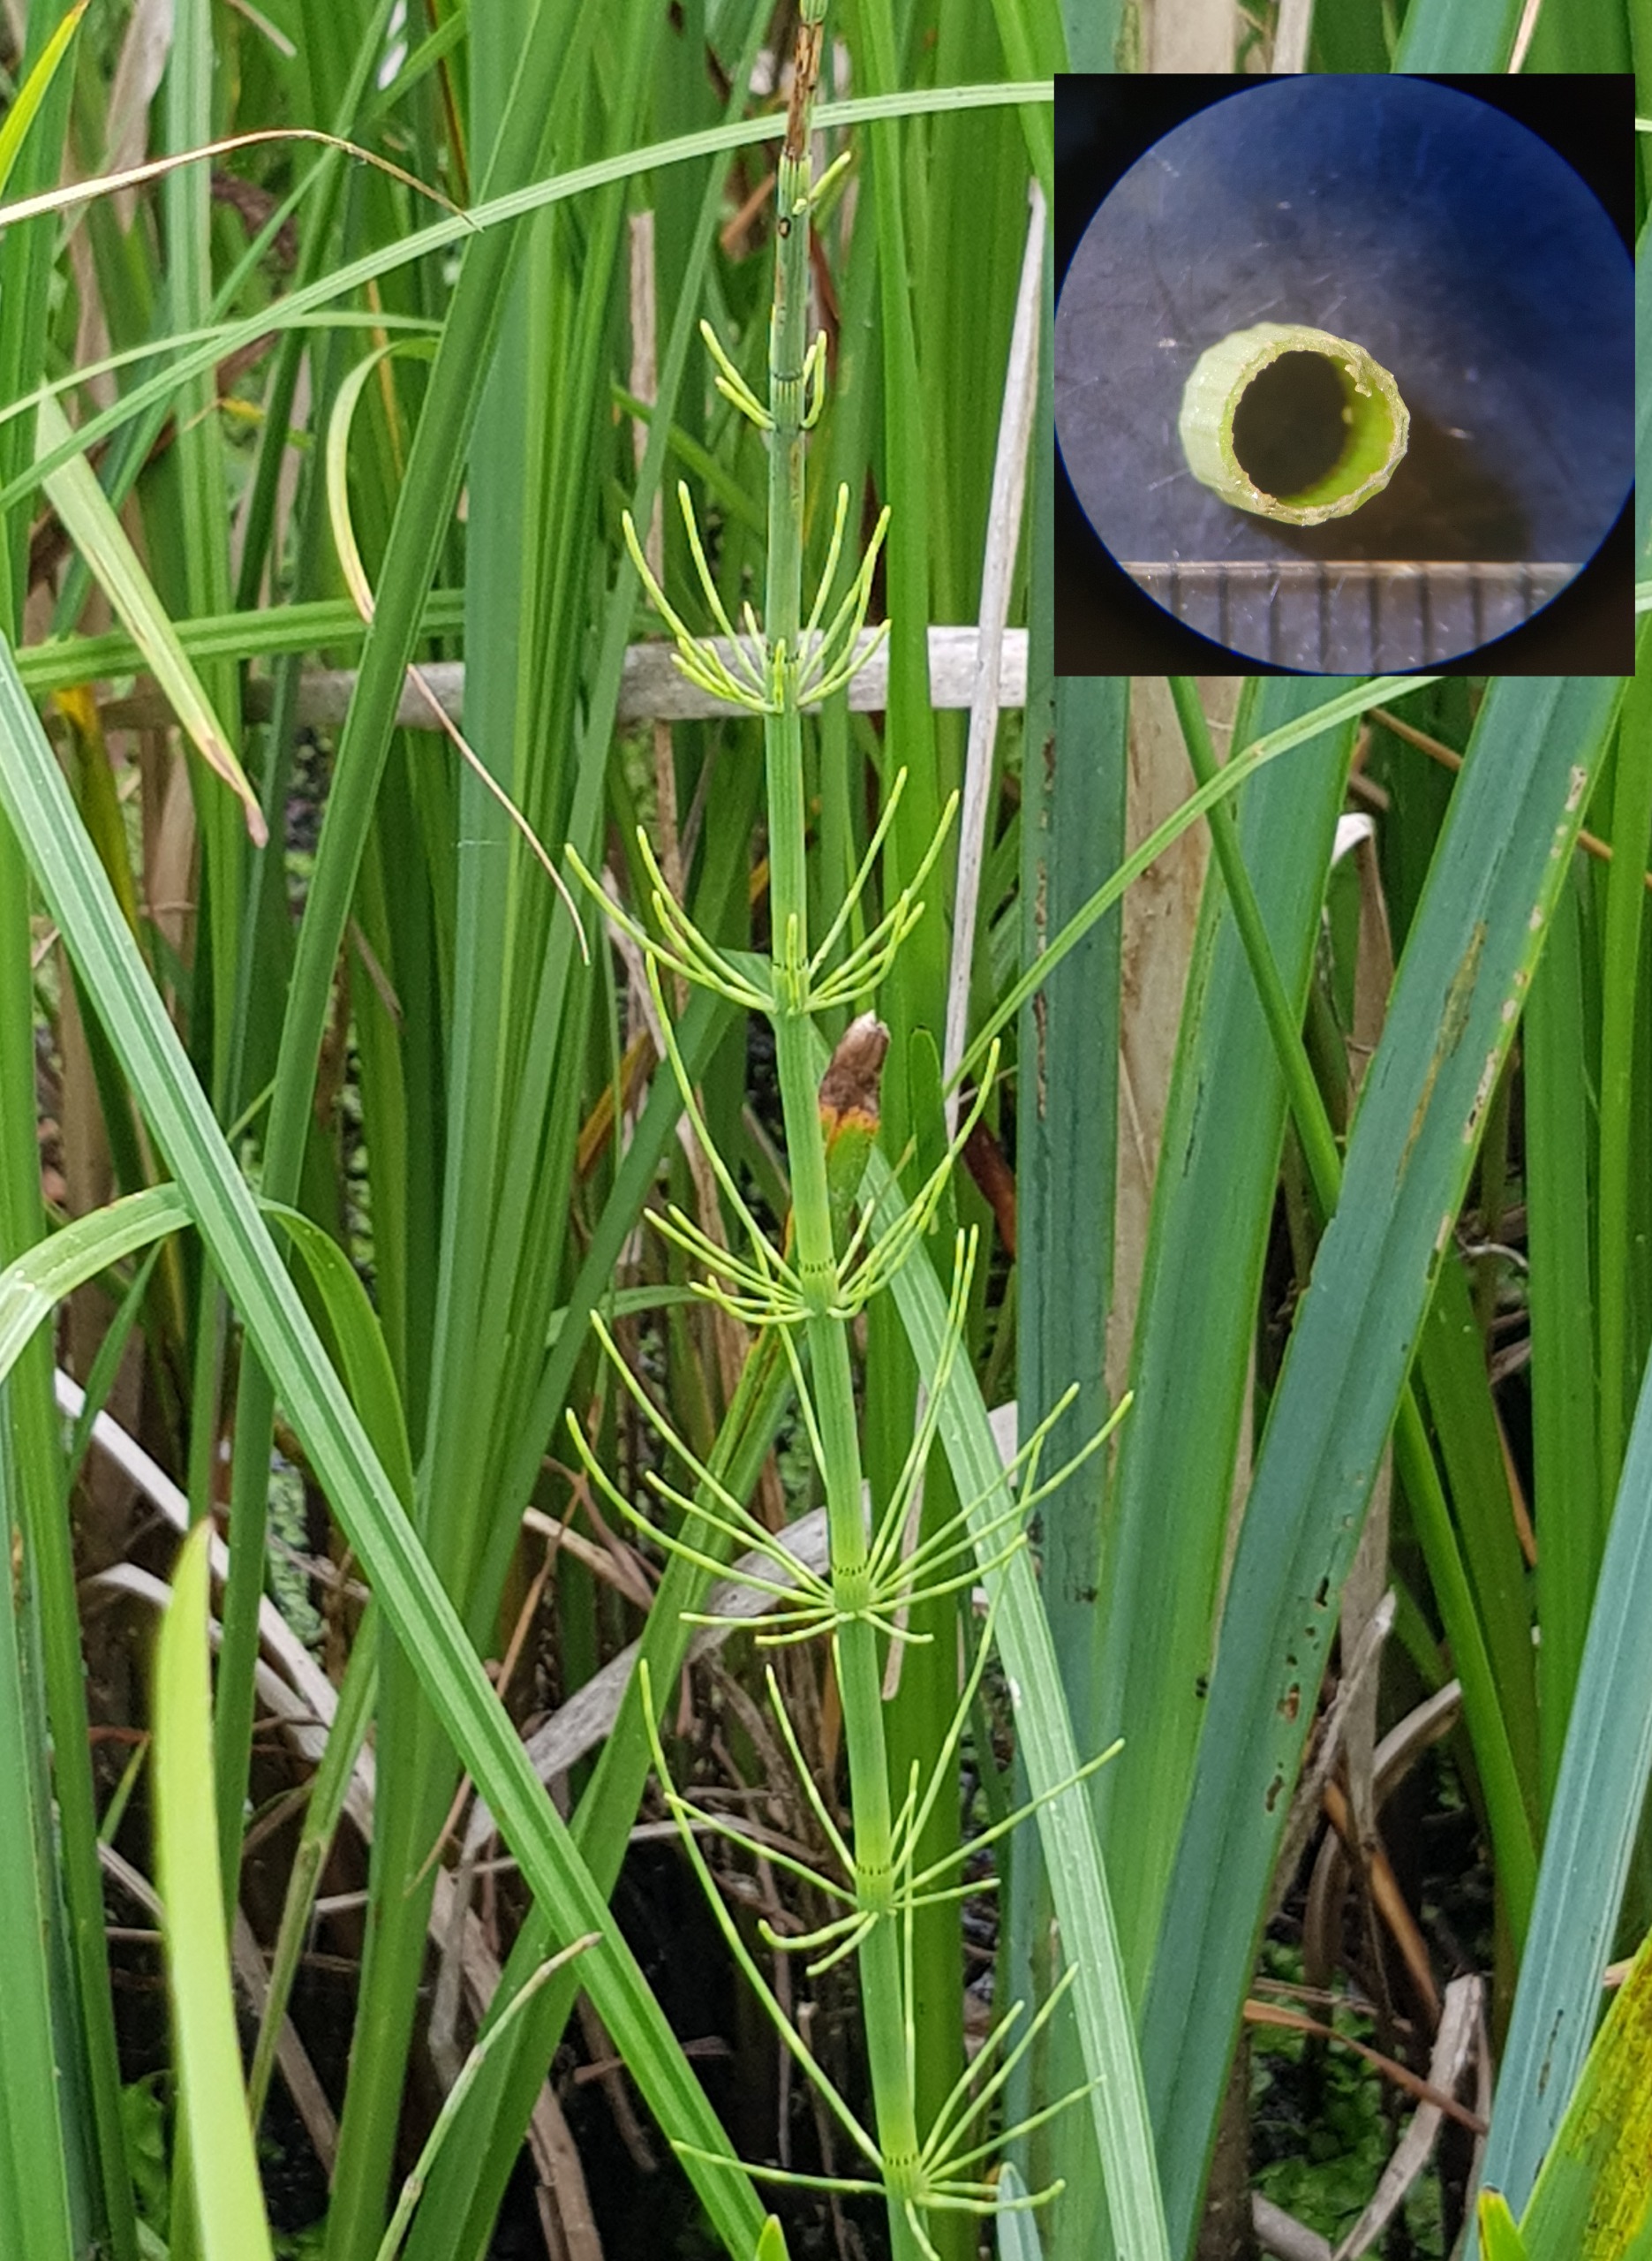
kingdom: Plantae
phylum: Tracheophyta
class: Polypodiopsida
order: Equisetales
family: Equisetaceae
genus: Equisetum
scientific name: Equisetum fluviatile
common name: Dynd-padderok
